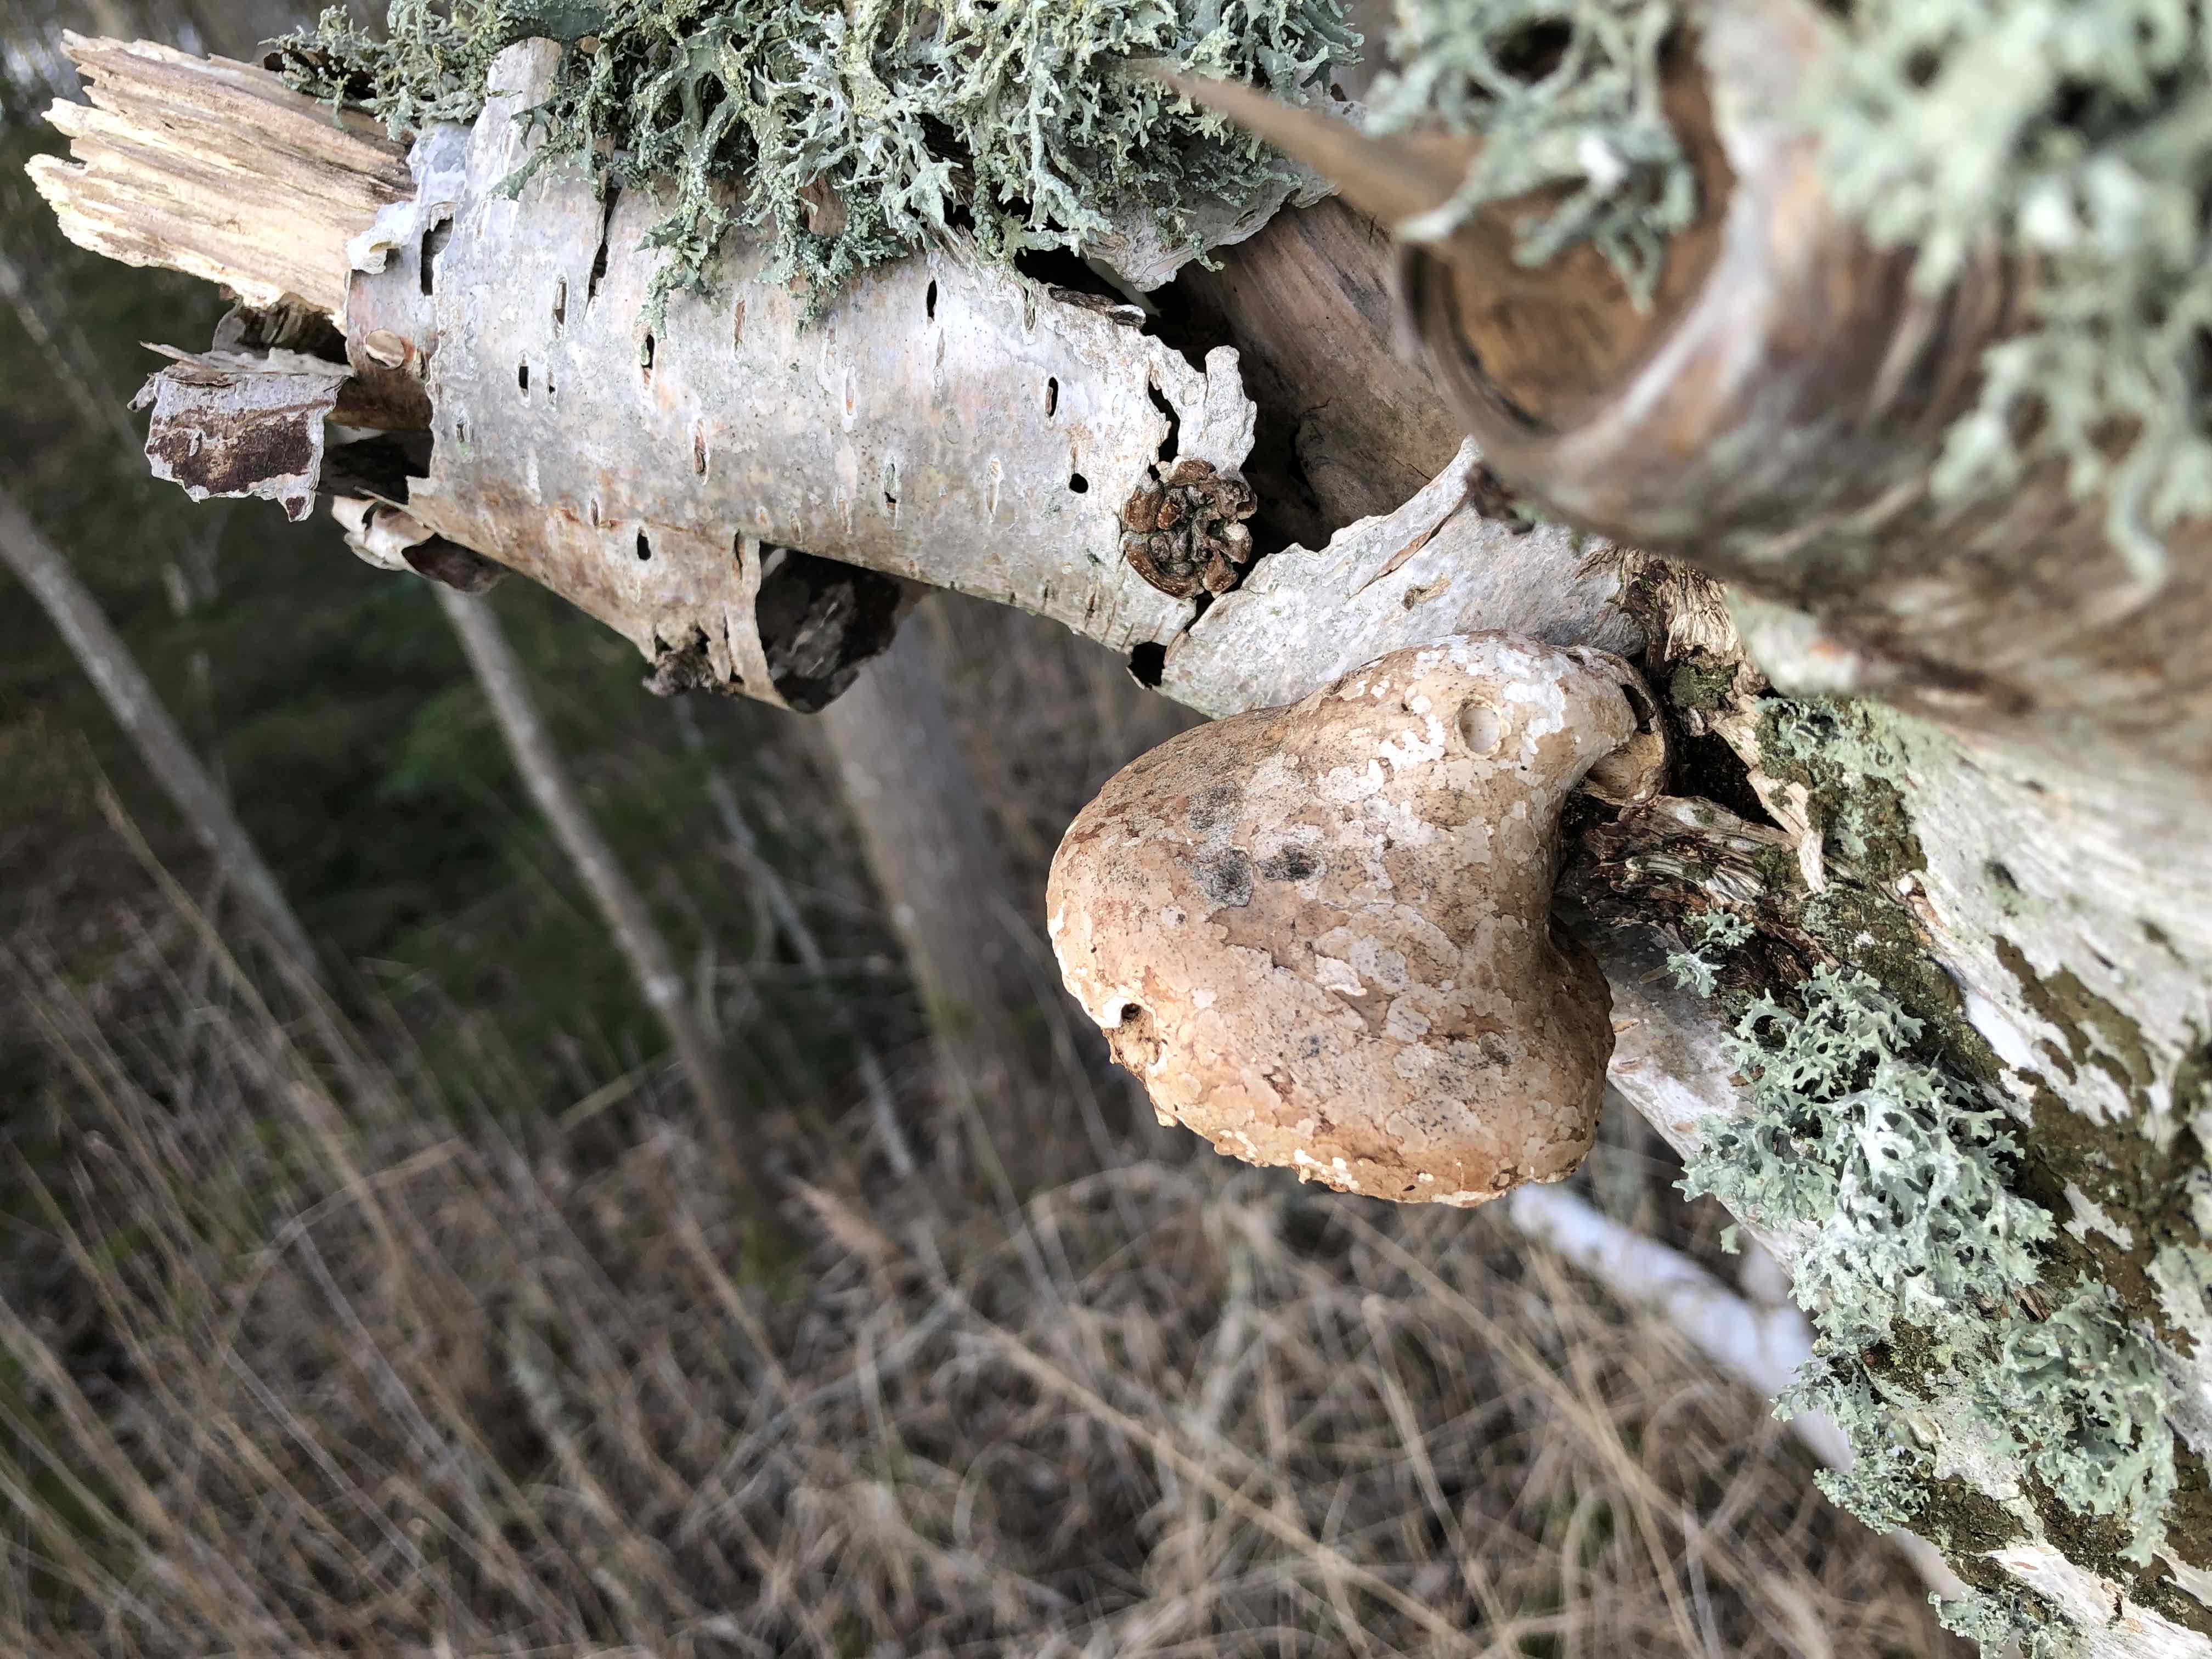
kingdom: Fungi
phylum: Basidiomycota
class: Agaricomycetes
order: Polyporales
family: Fomitopsidaceae
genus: Fomitopsis
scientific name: Fomitopsis betulina
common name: birkeporesvamp
